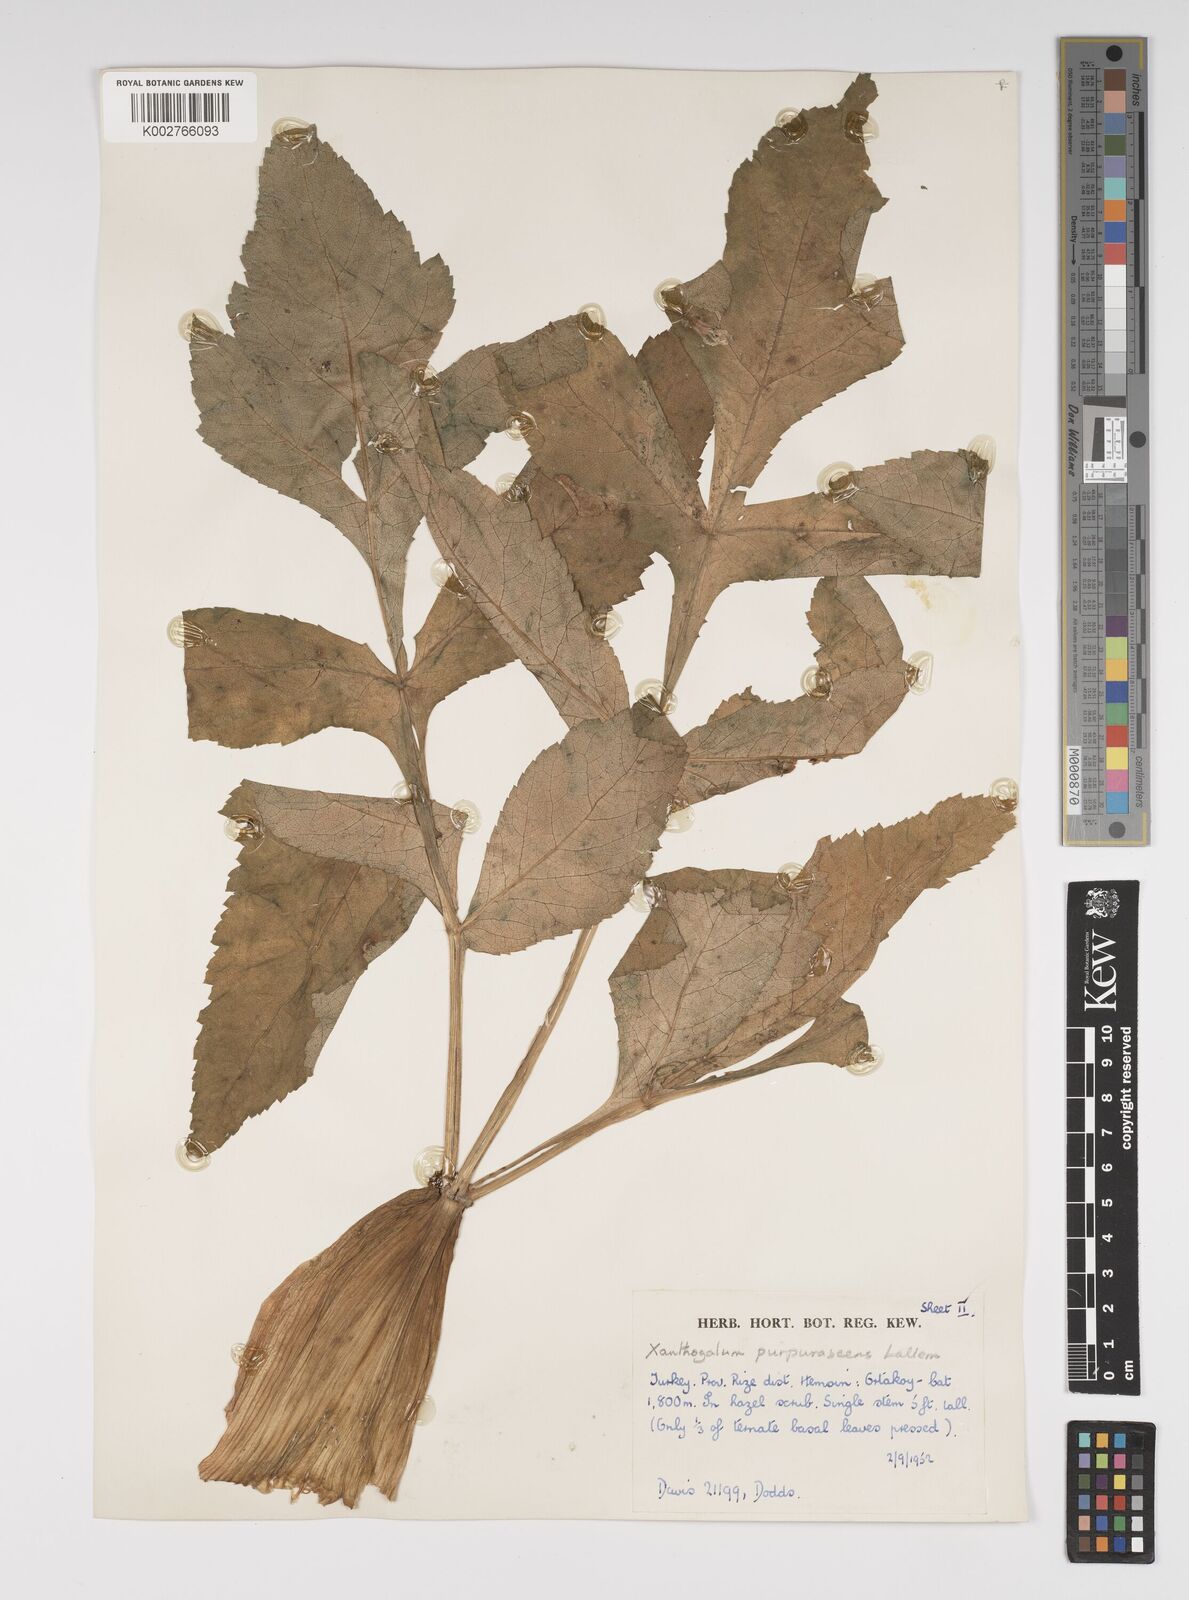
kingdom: Plantae
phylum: Tracheophyta
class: Magnoliopsida
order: Apiales
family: Apiaceae
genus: Xanthogalum
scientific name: Xanthogalum purpurascens
